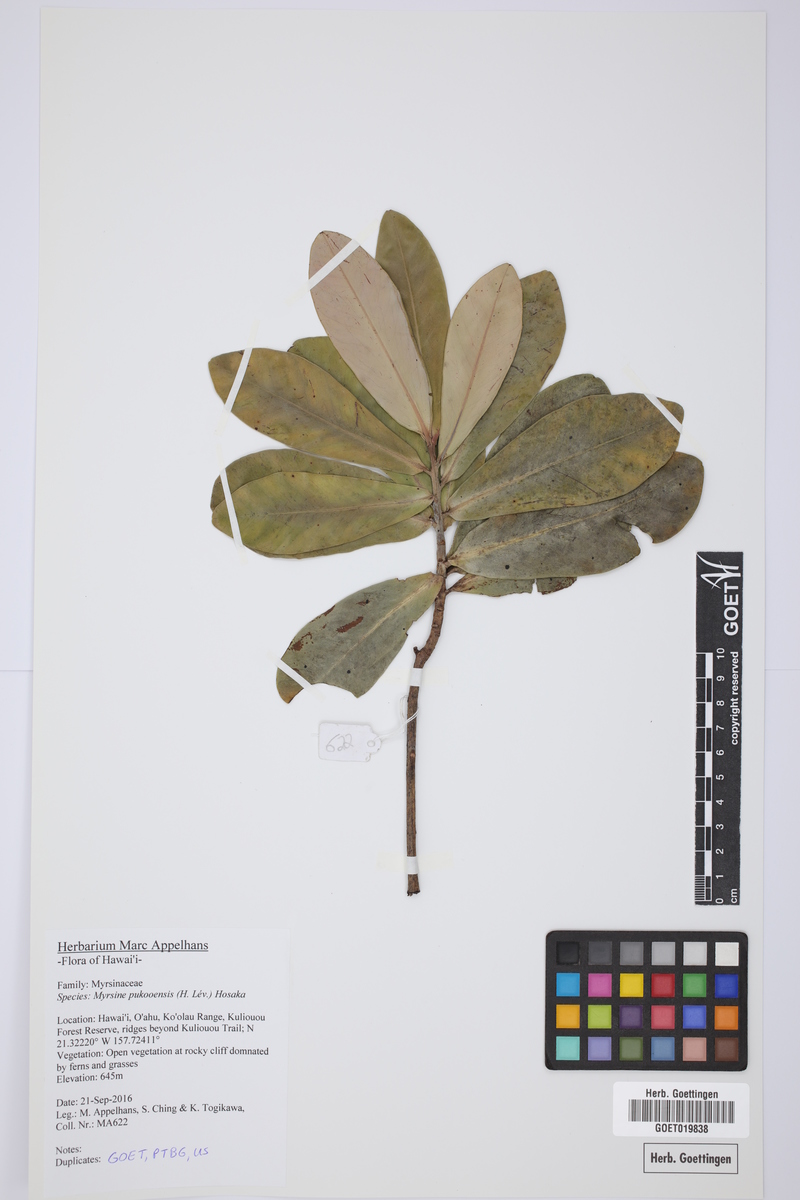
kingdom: Plantae
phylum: Tracheophyta
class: Magnoliopsida
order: Ericales
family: Primulaceae
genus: Myrsine
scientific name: Myrsine pukooensis
